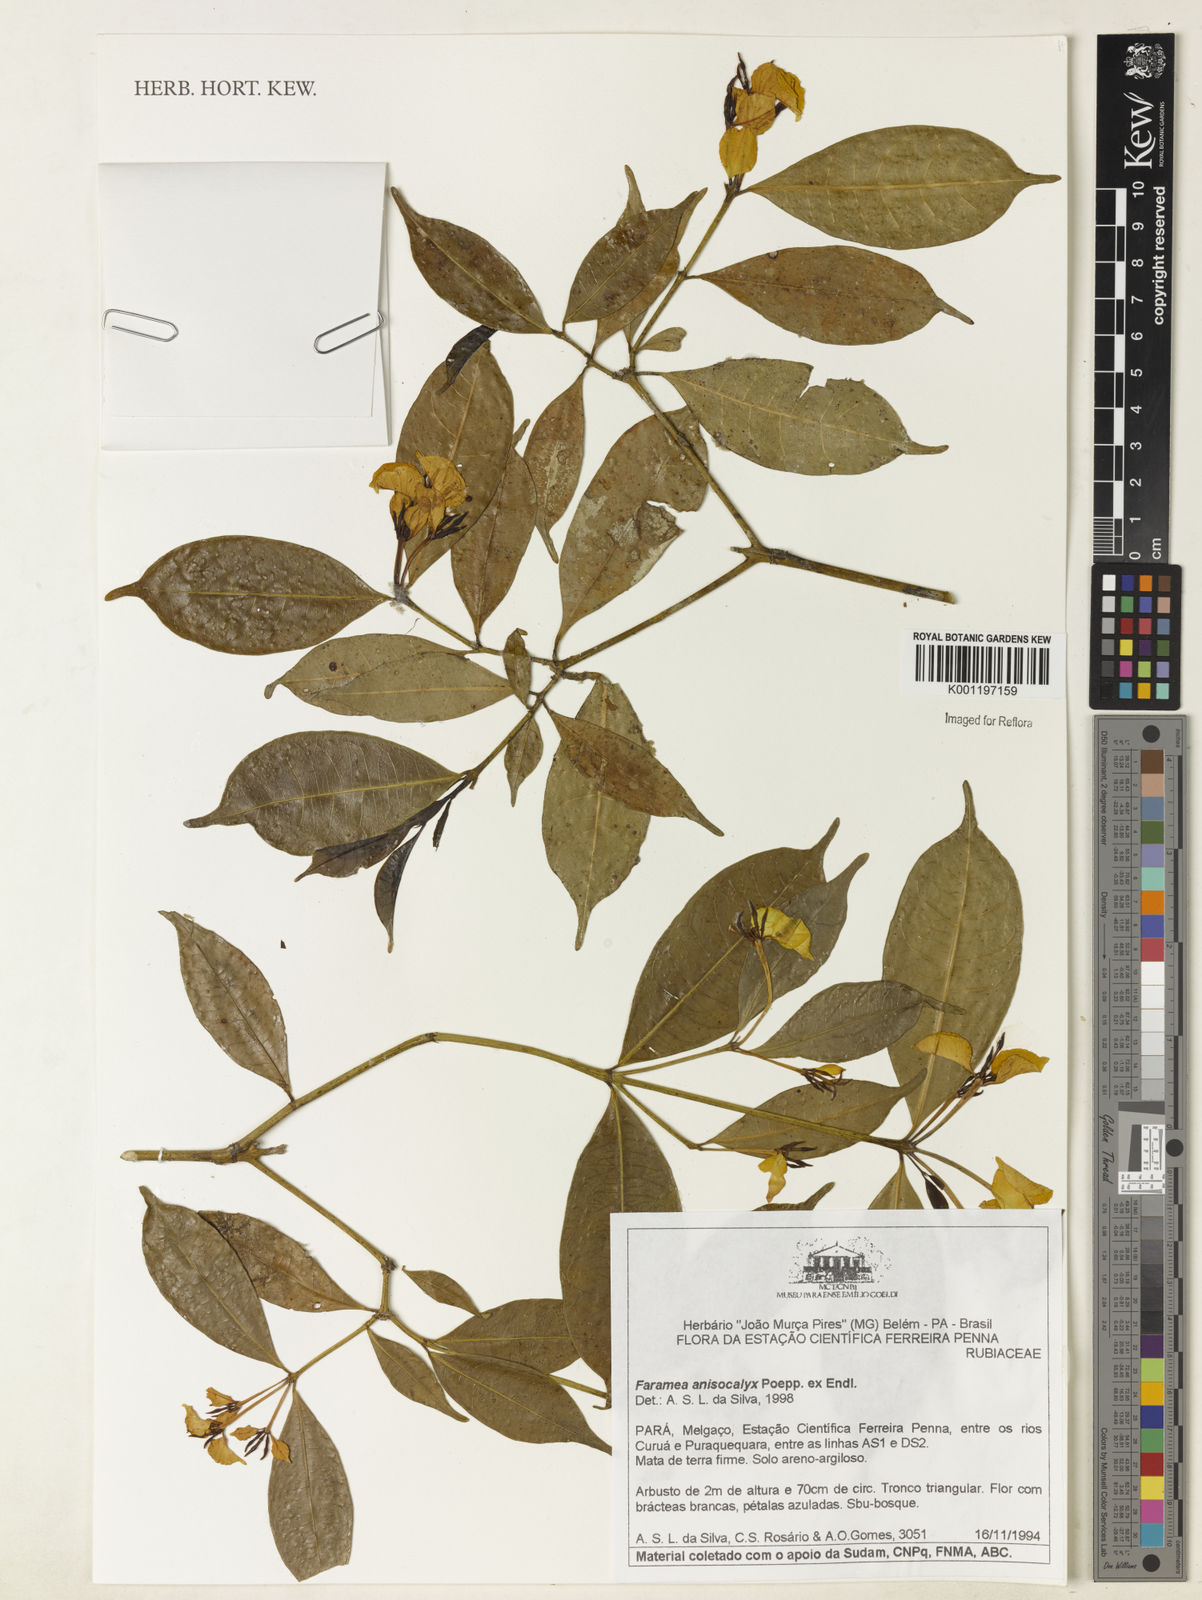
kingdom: Plantae
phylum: Tracheophyta
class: Magnoliopsida
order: Gentianales
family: Rubiaceae
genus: Faramea
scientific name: Faramea anisocalyx
